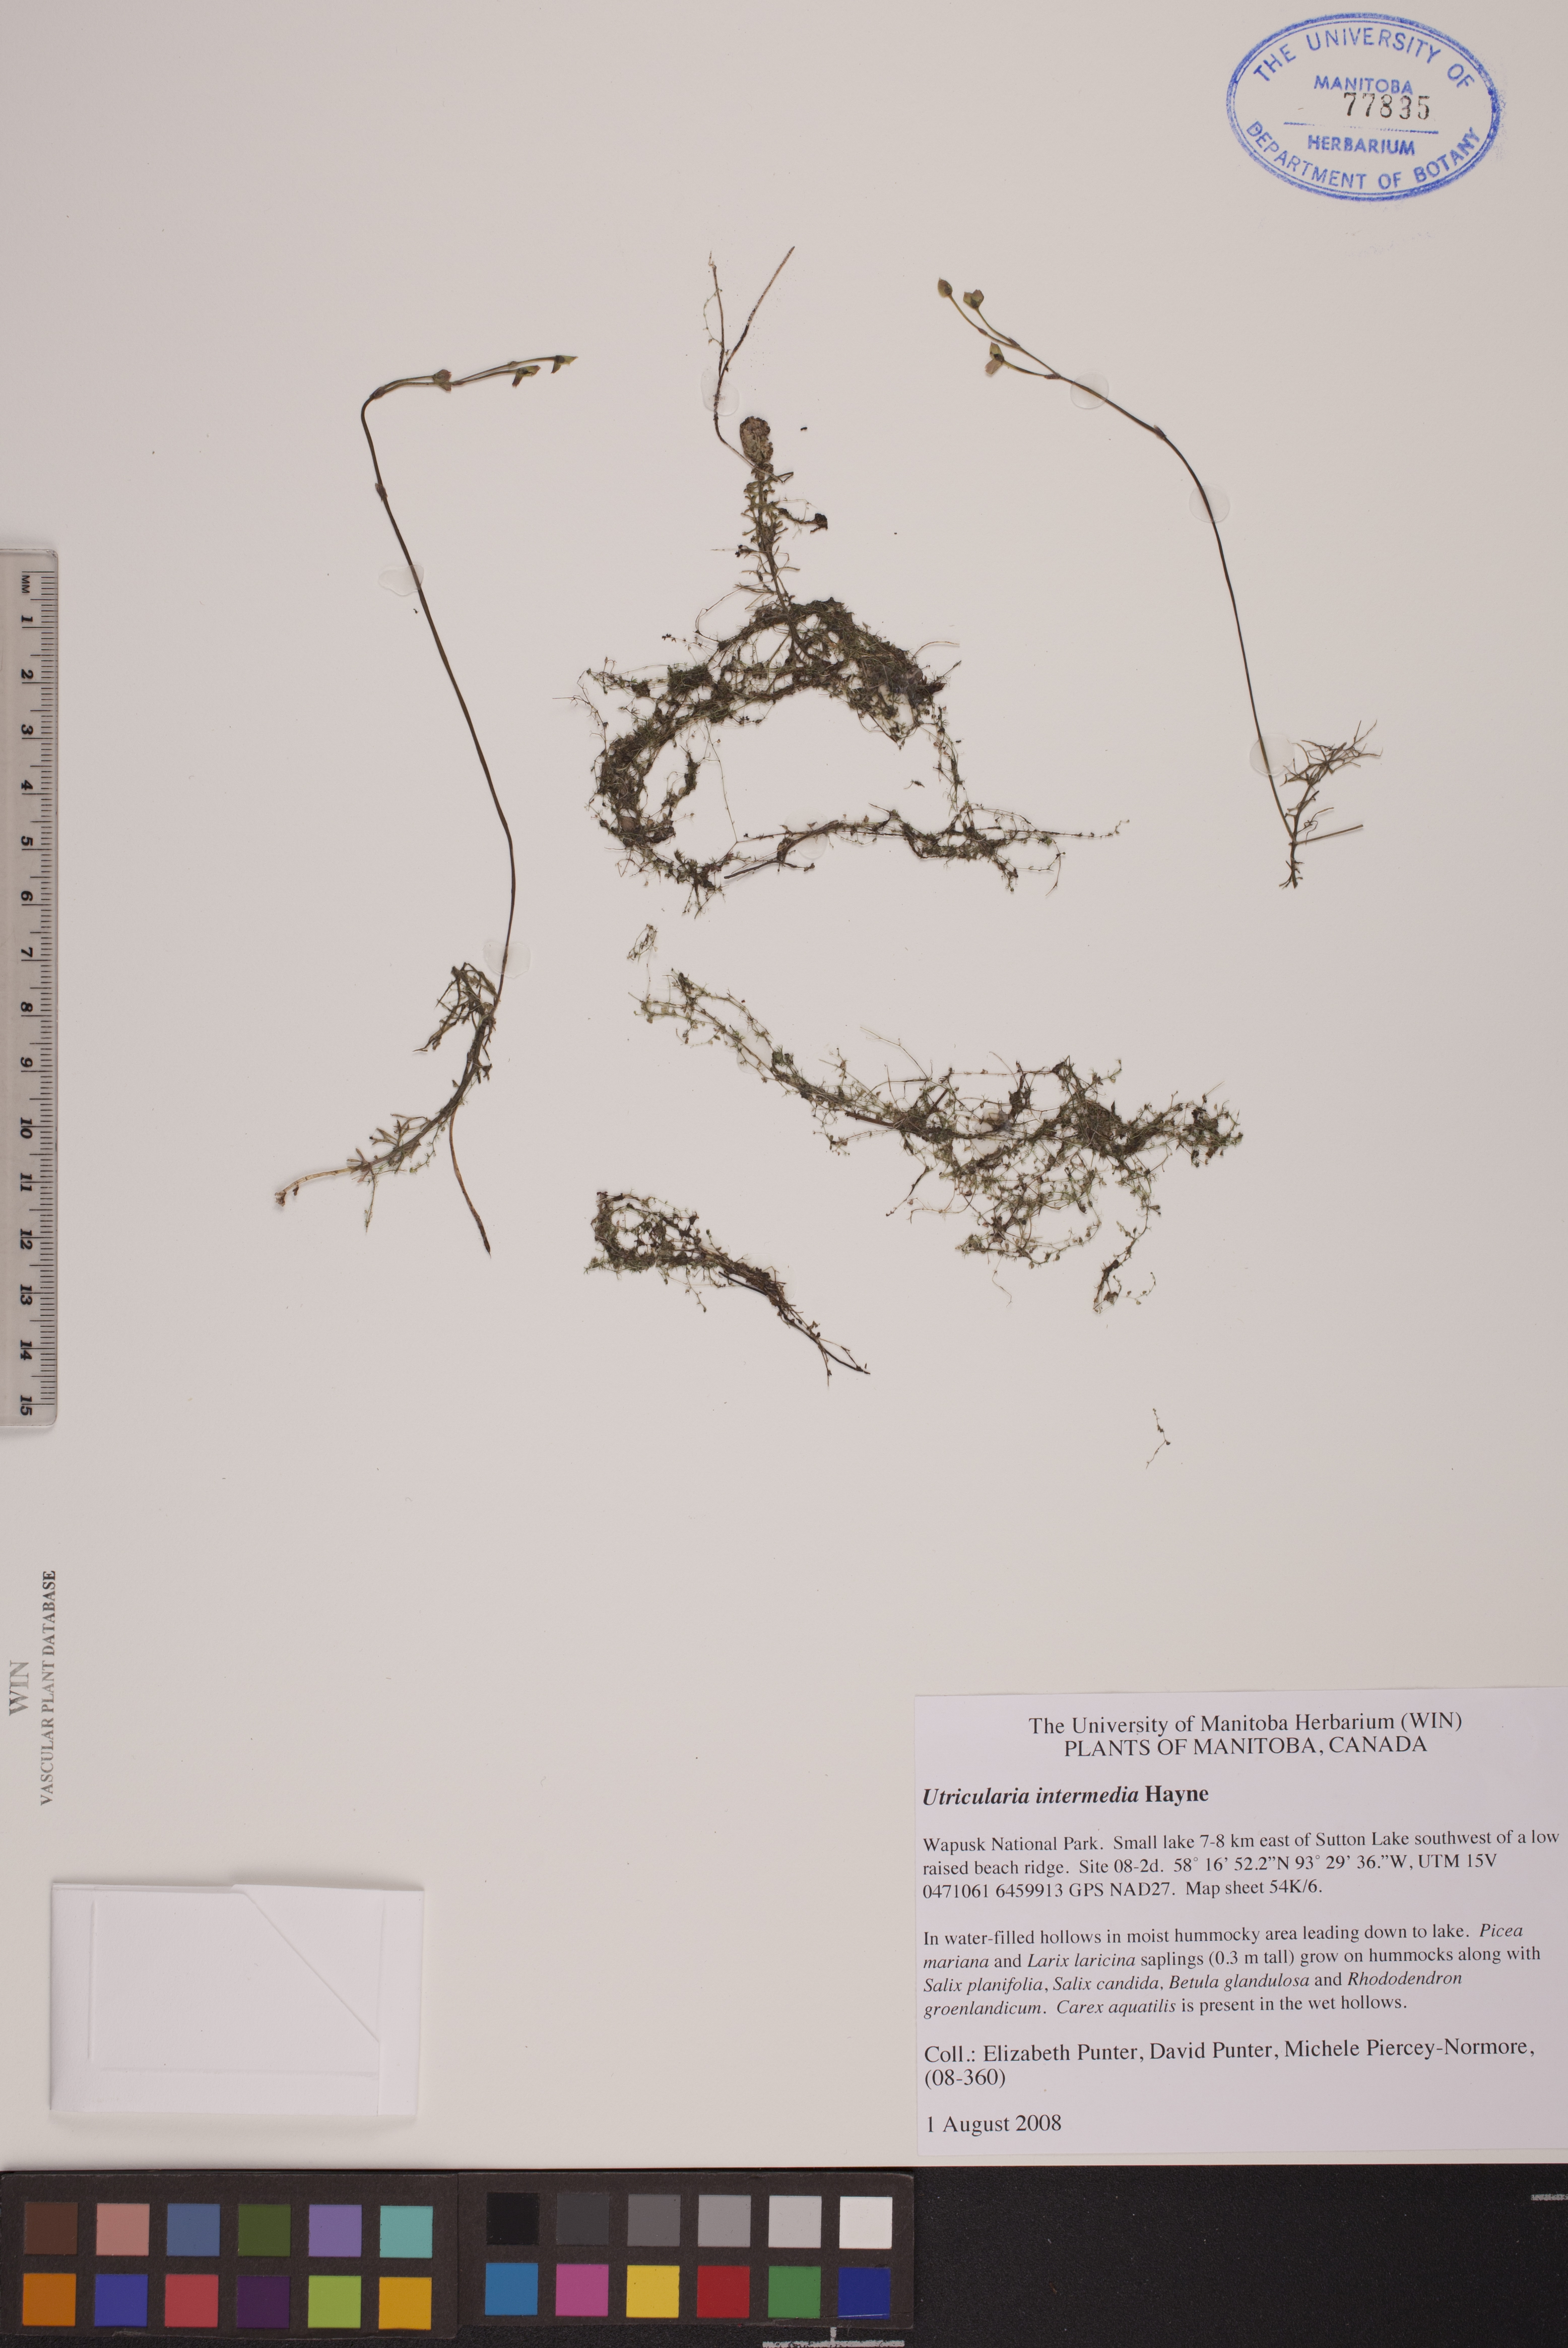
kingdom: Plantae
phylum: Tracheophyta
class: Magnoliopsida
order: Lamiales
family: Lentibulariaceae
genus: Utricularia
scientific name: Utricularia intermedia
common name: Intermediate bladderwort
